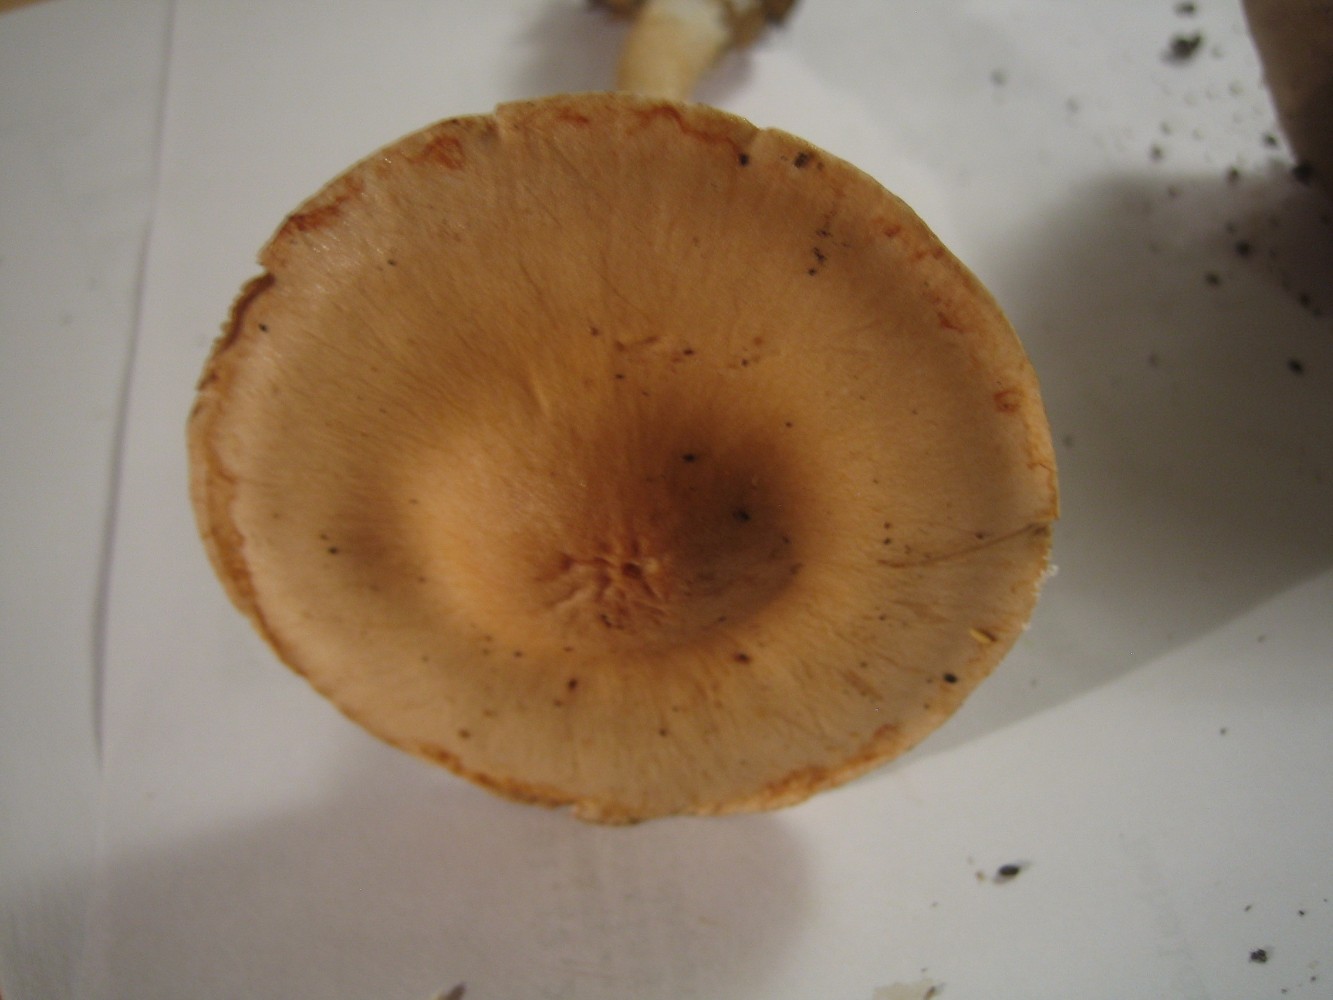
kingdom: Fungi
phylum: Basidiomycota
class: Agaricomycetes
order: Agaricales
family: Cortinariaceae
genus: Cortinarius
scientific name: Cortinarius
